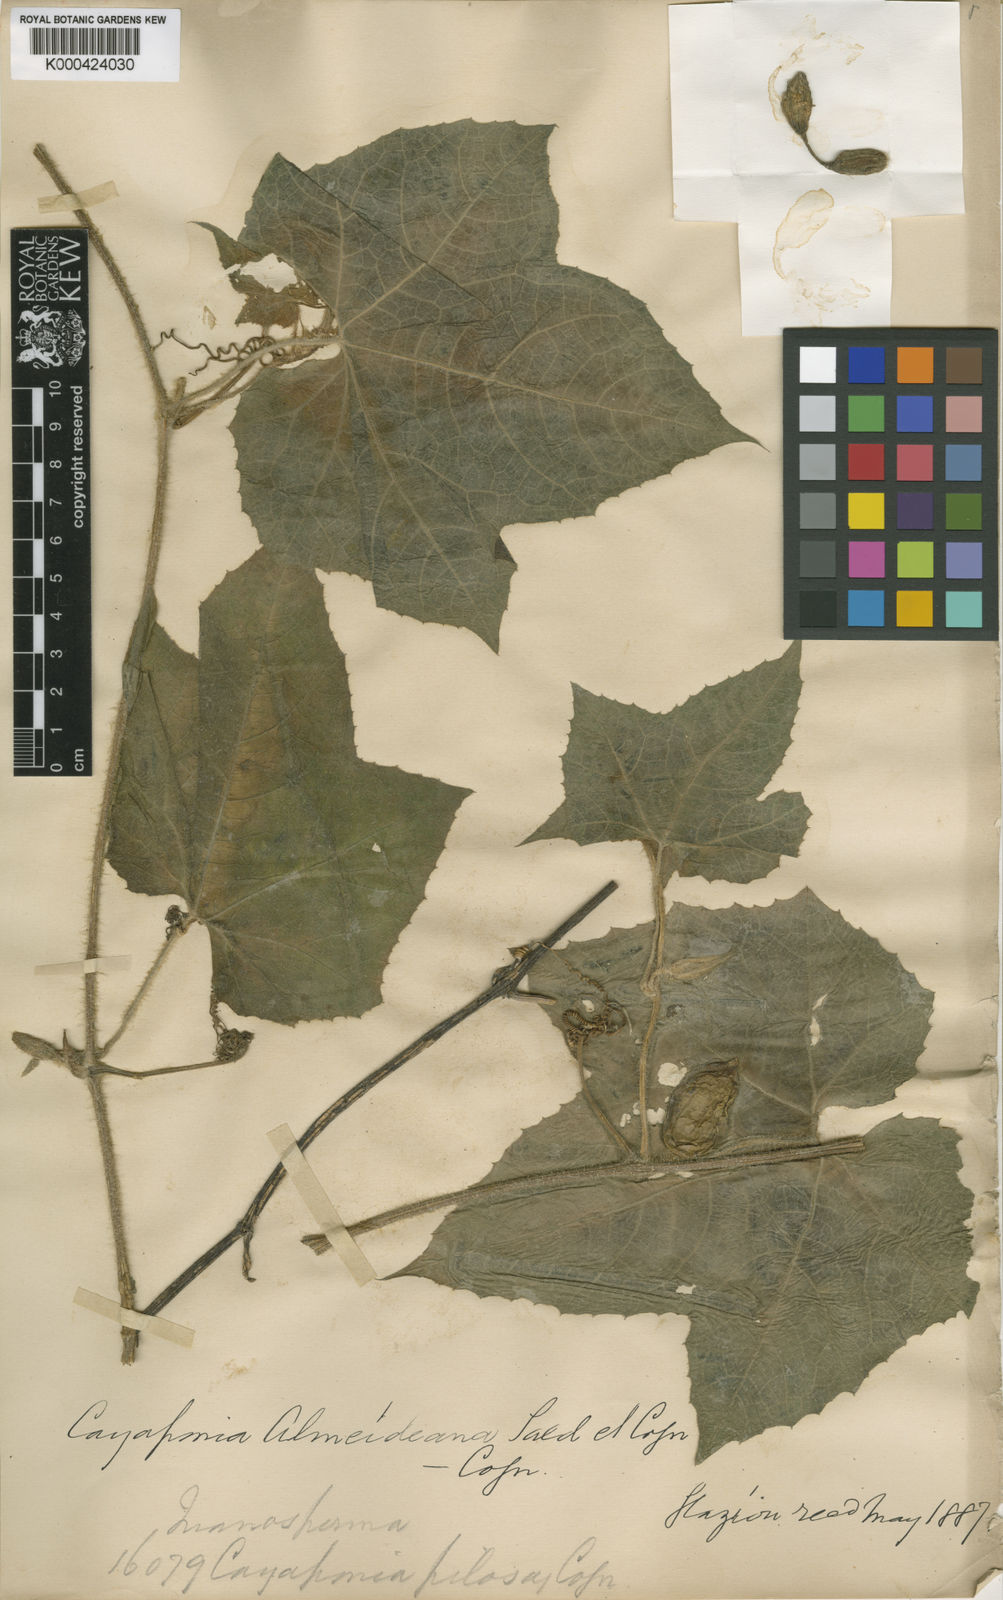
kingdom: Plantae
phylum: Tracheophyta
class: Magnoliopsida
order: Cucurbitales
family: Cucurbitaceae
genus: Cayaponia
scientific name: Cayaponia fluminensis
